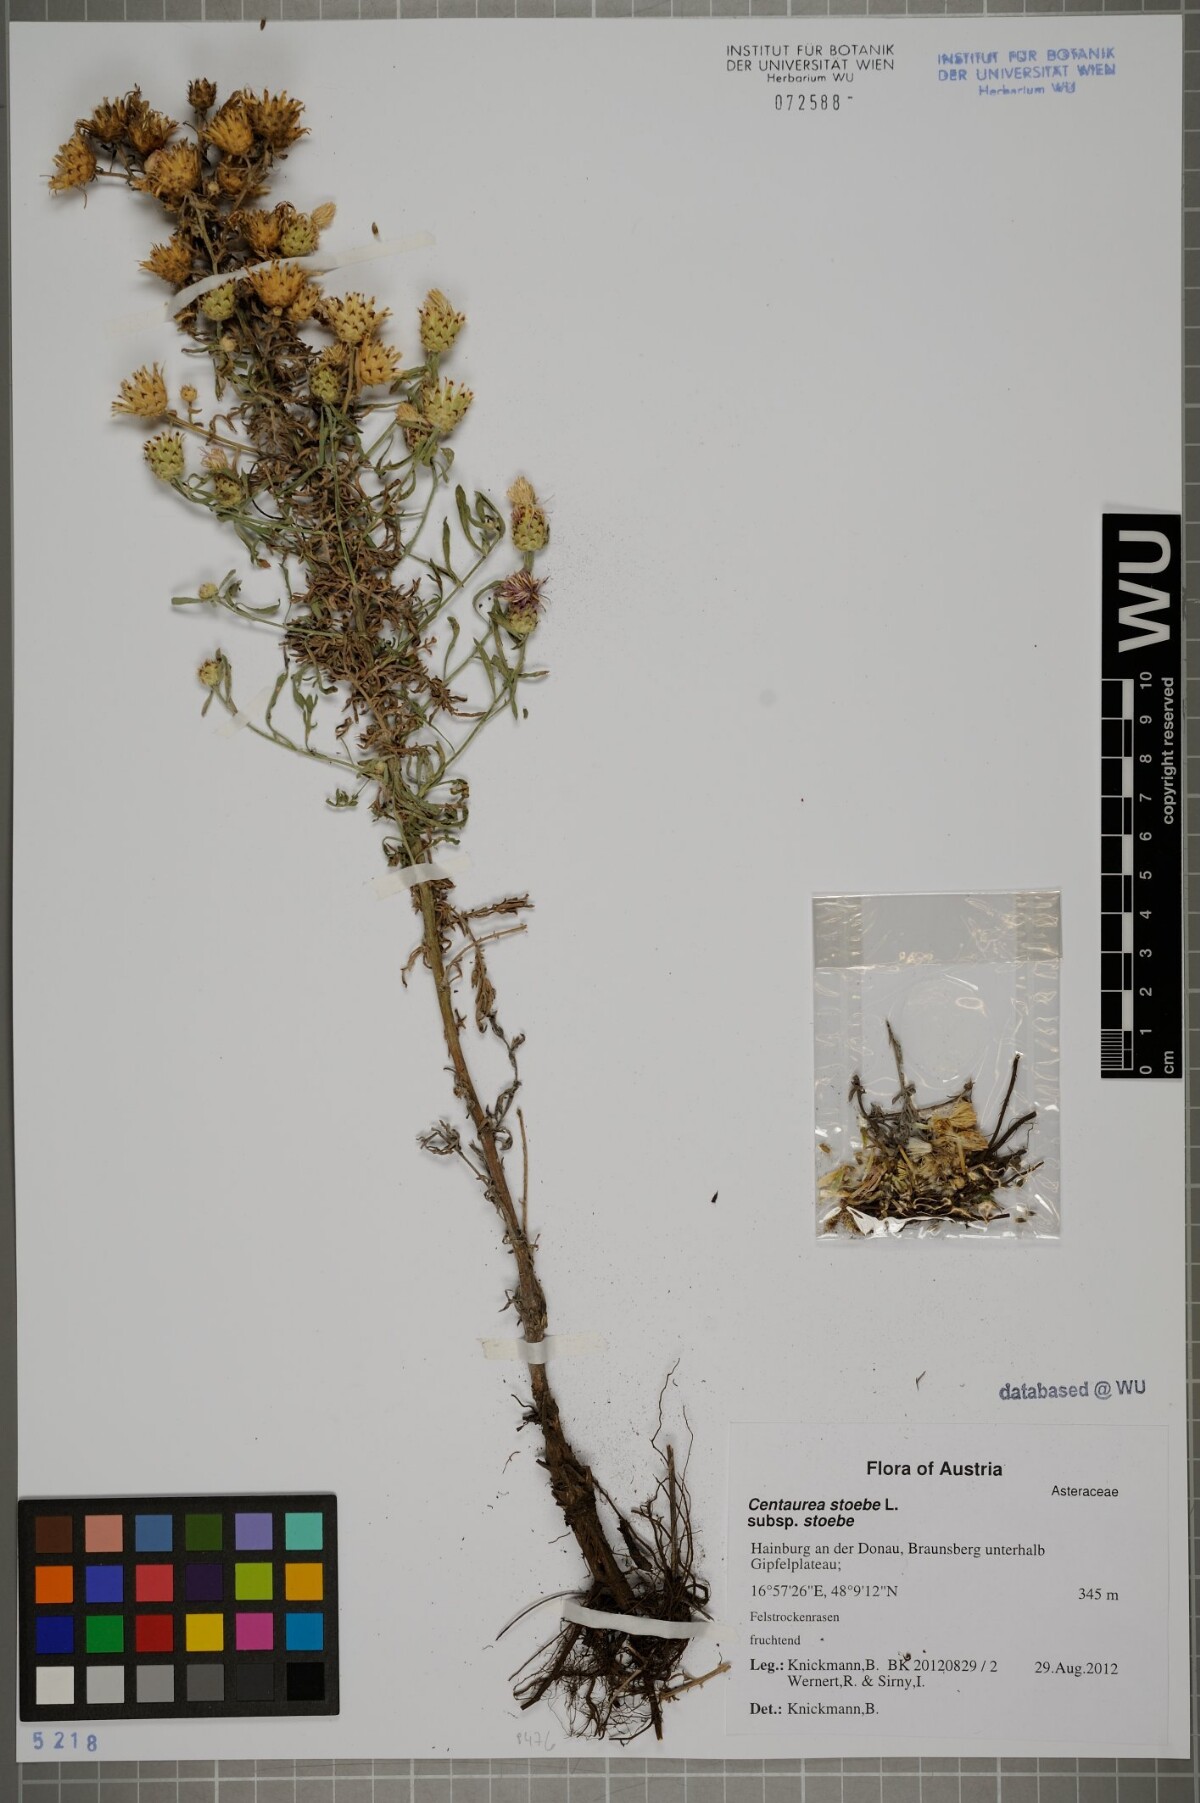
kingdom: Plantae
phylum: Tracheophyta
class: Magnoliopsida
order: Asterales
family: Asteraceae
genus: Centaurea
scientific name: Centaurea stoebe
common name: Spotted knapweed
